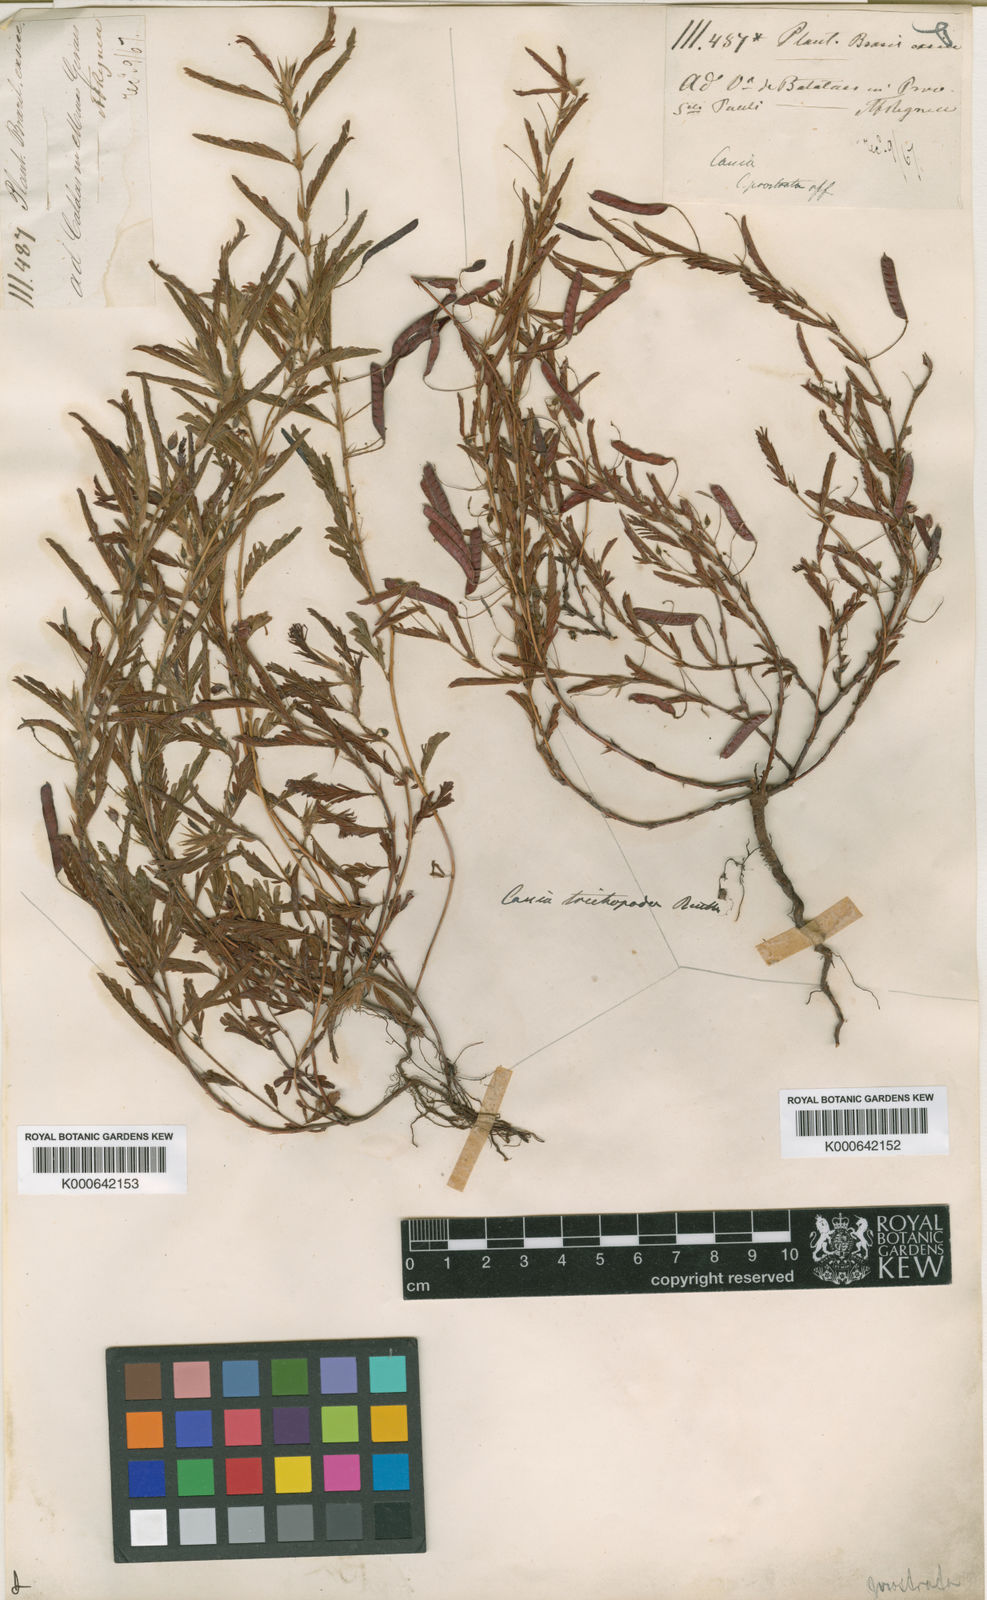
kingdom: Plantae
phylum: Tracheophyta
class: Magnoliopsida
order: Fabales
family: Fabaceae
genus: Chamaecrista
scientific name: Chamaecrista trichopoda
